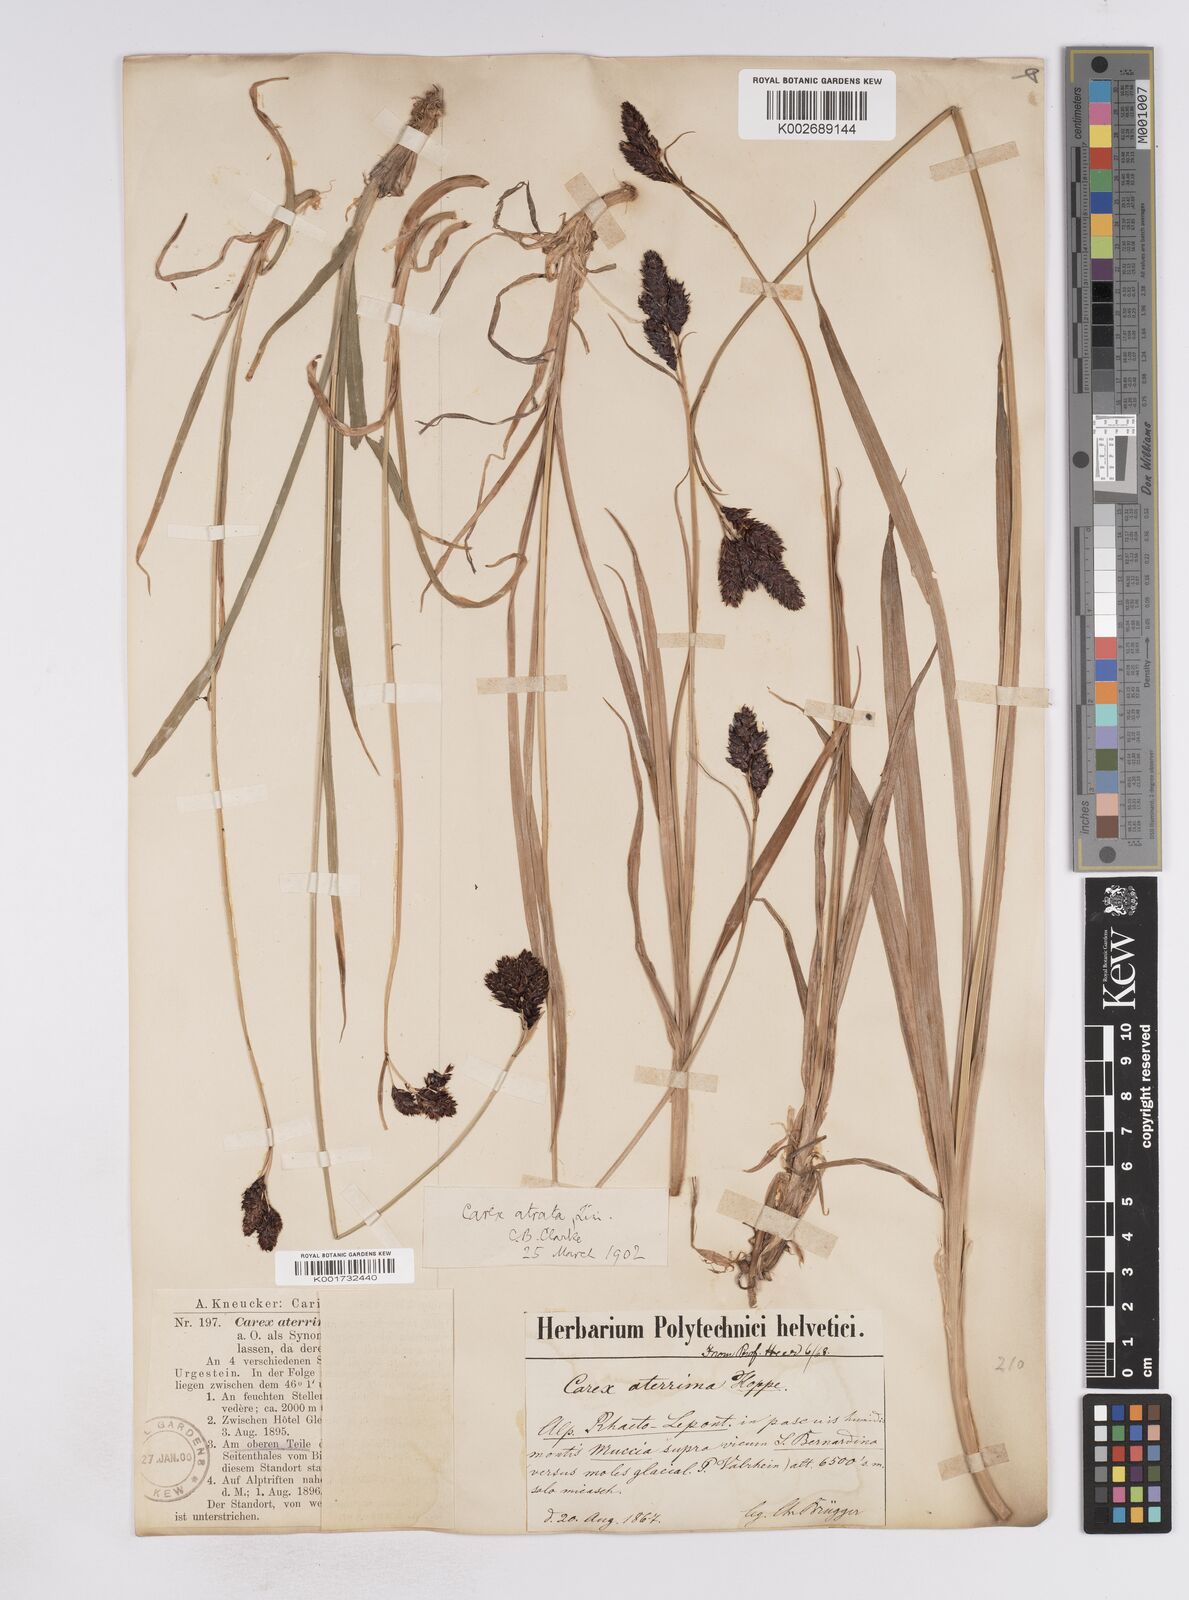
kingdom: Plantae
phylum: Tracheophyta
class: Liliopsida
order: Poales
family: Cyperaceae
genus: Carex
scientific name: Carex aterrima
